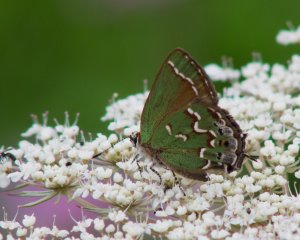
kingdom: Animalia
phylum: Arthropoda
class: Insecta
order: Lepidoptera
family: Lycaenidae
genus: Mitoura
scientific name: Mitoura gryneus
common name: Juniper Hairstreak
